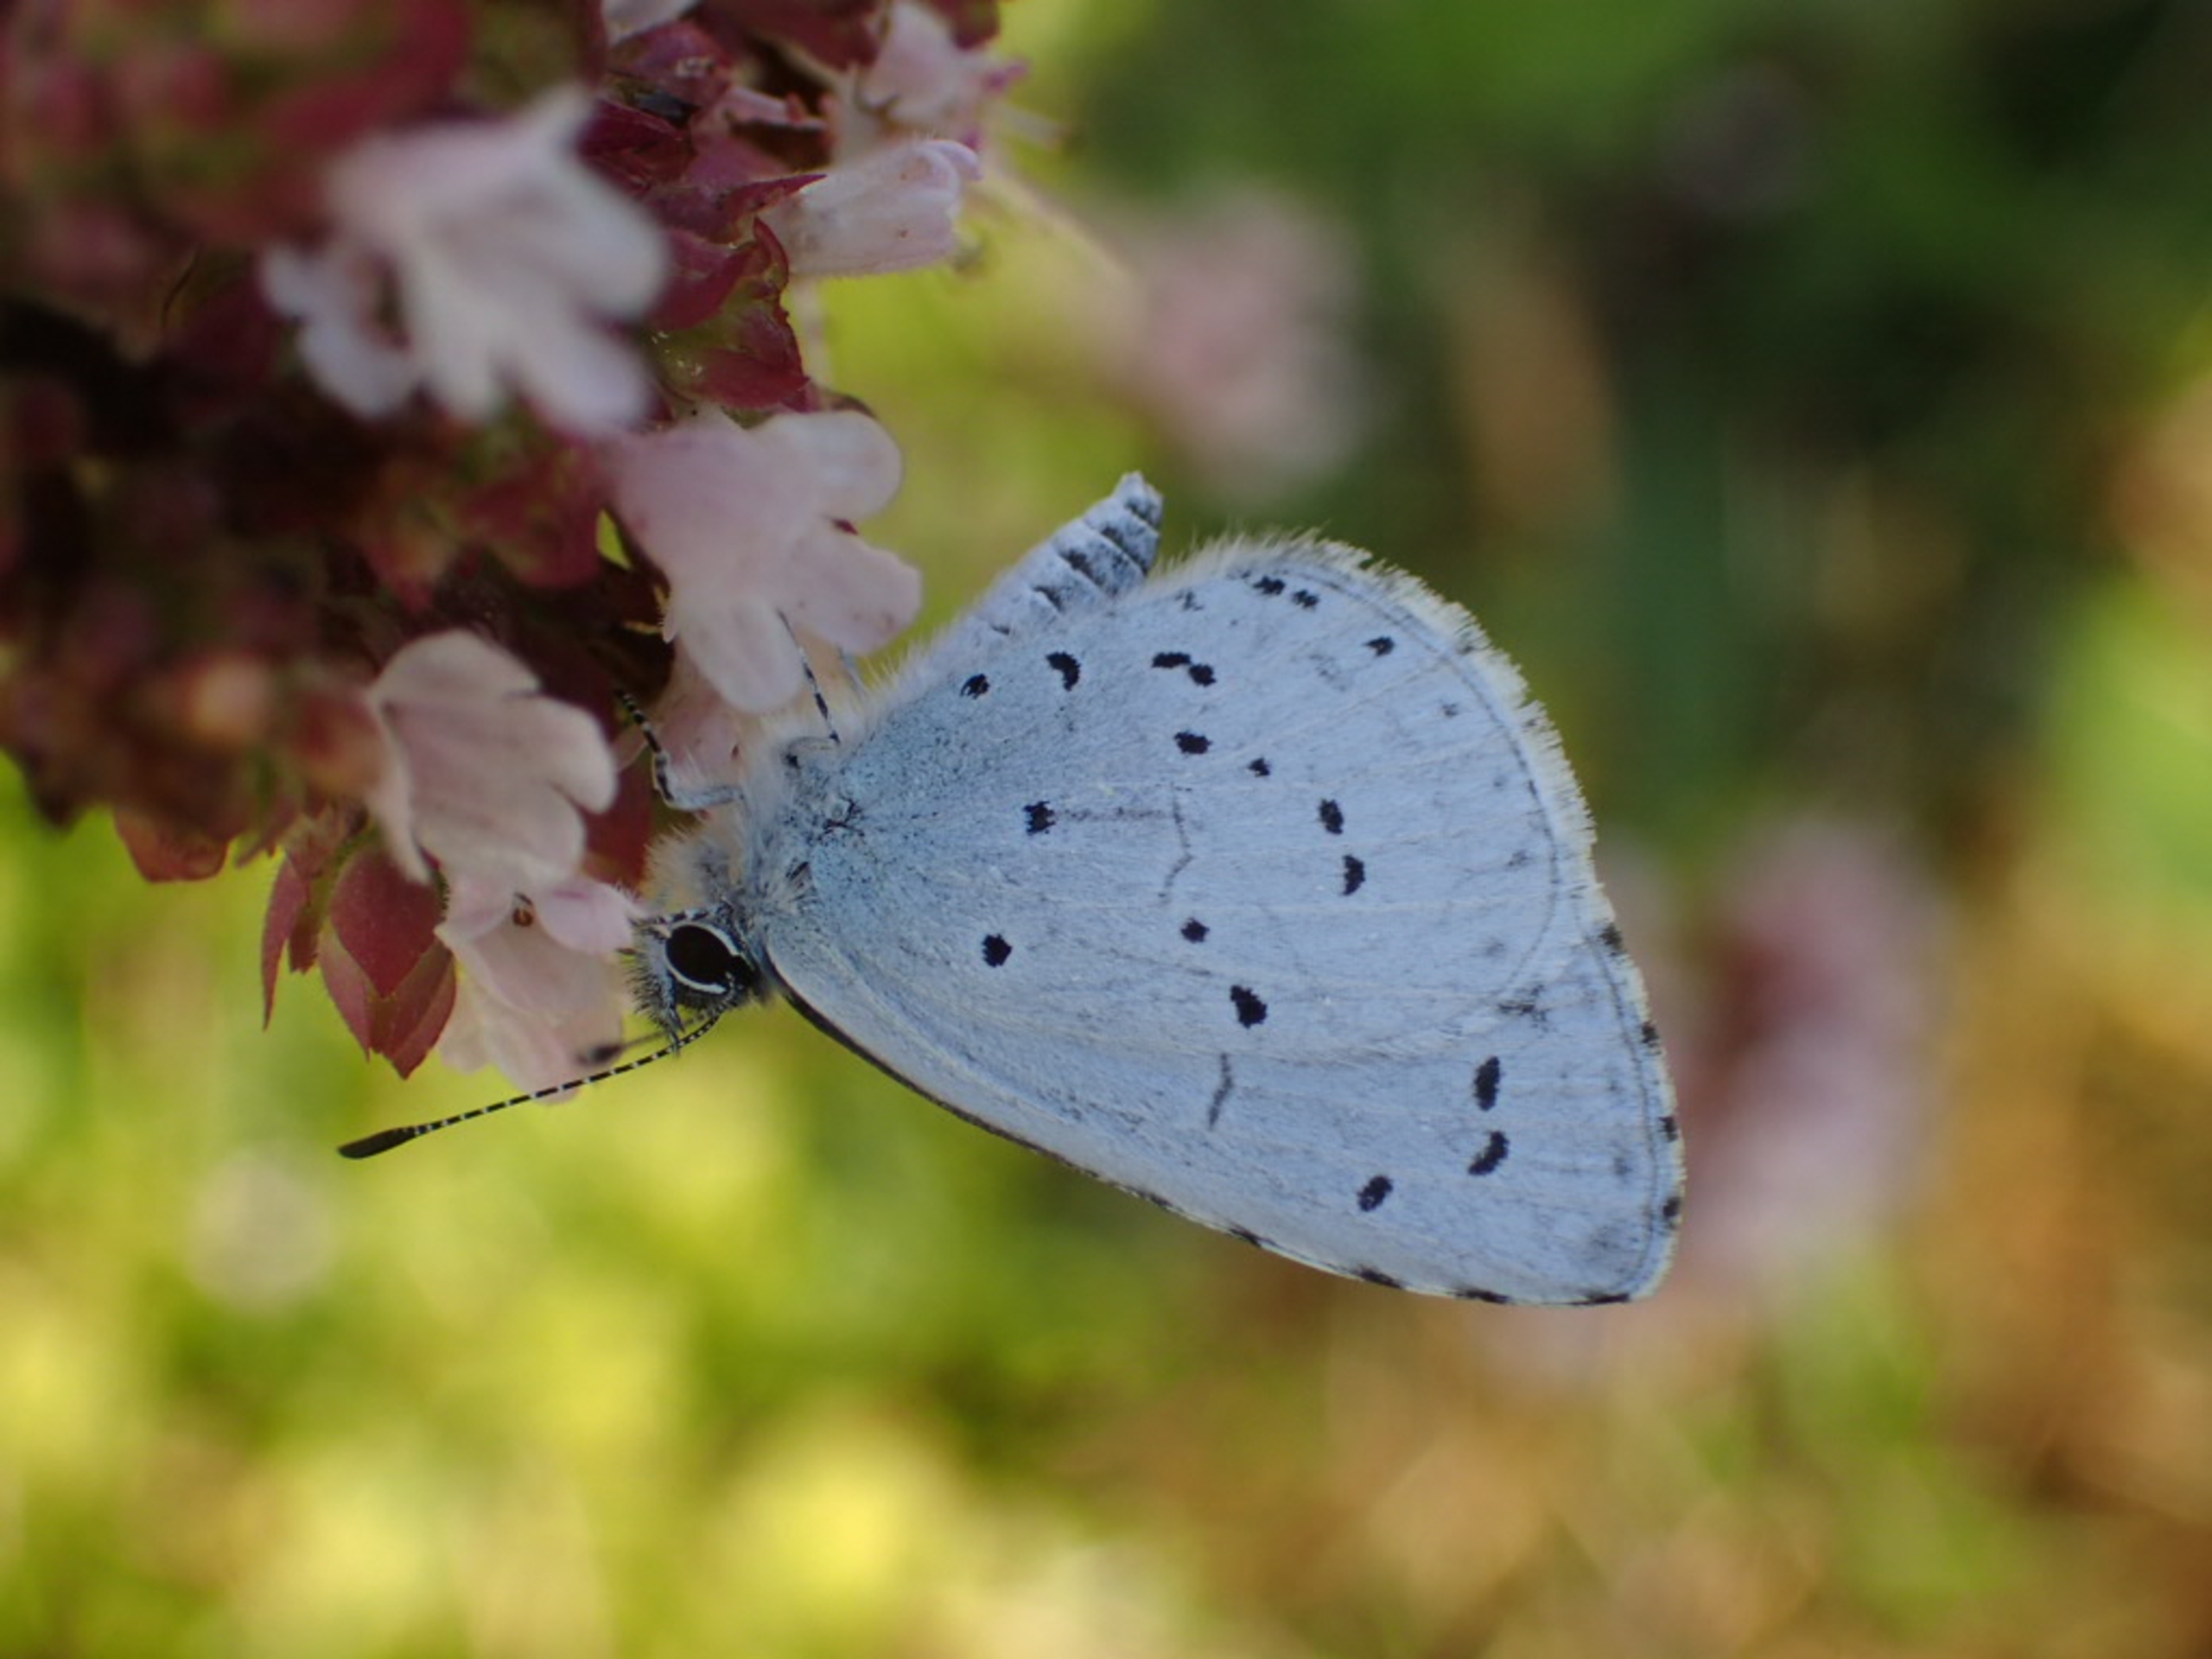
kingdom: Animalia
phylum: Arthropoda
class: Insecta
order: Lepidoptera
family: Lycaenidae
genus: Celastrina
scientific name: Celastrina argiolus
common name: Skovblåfugl
